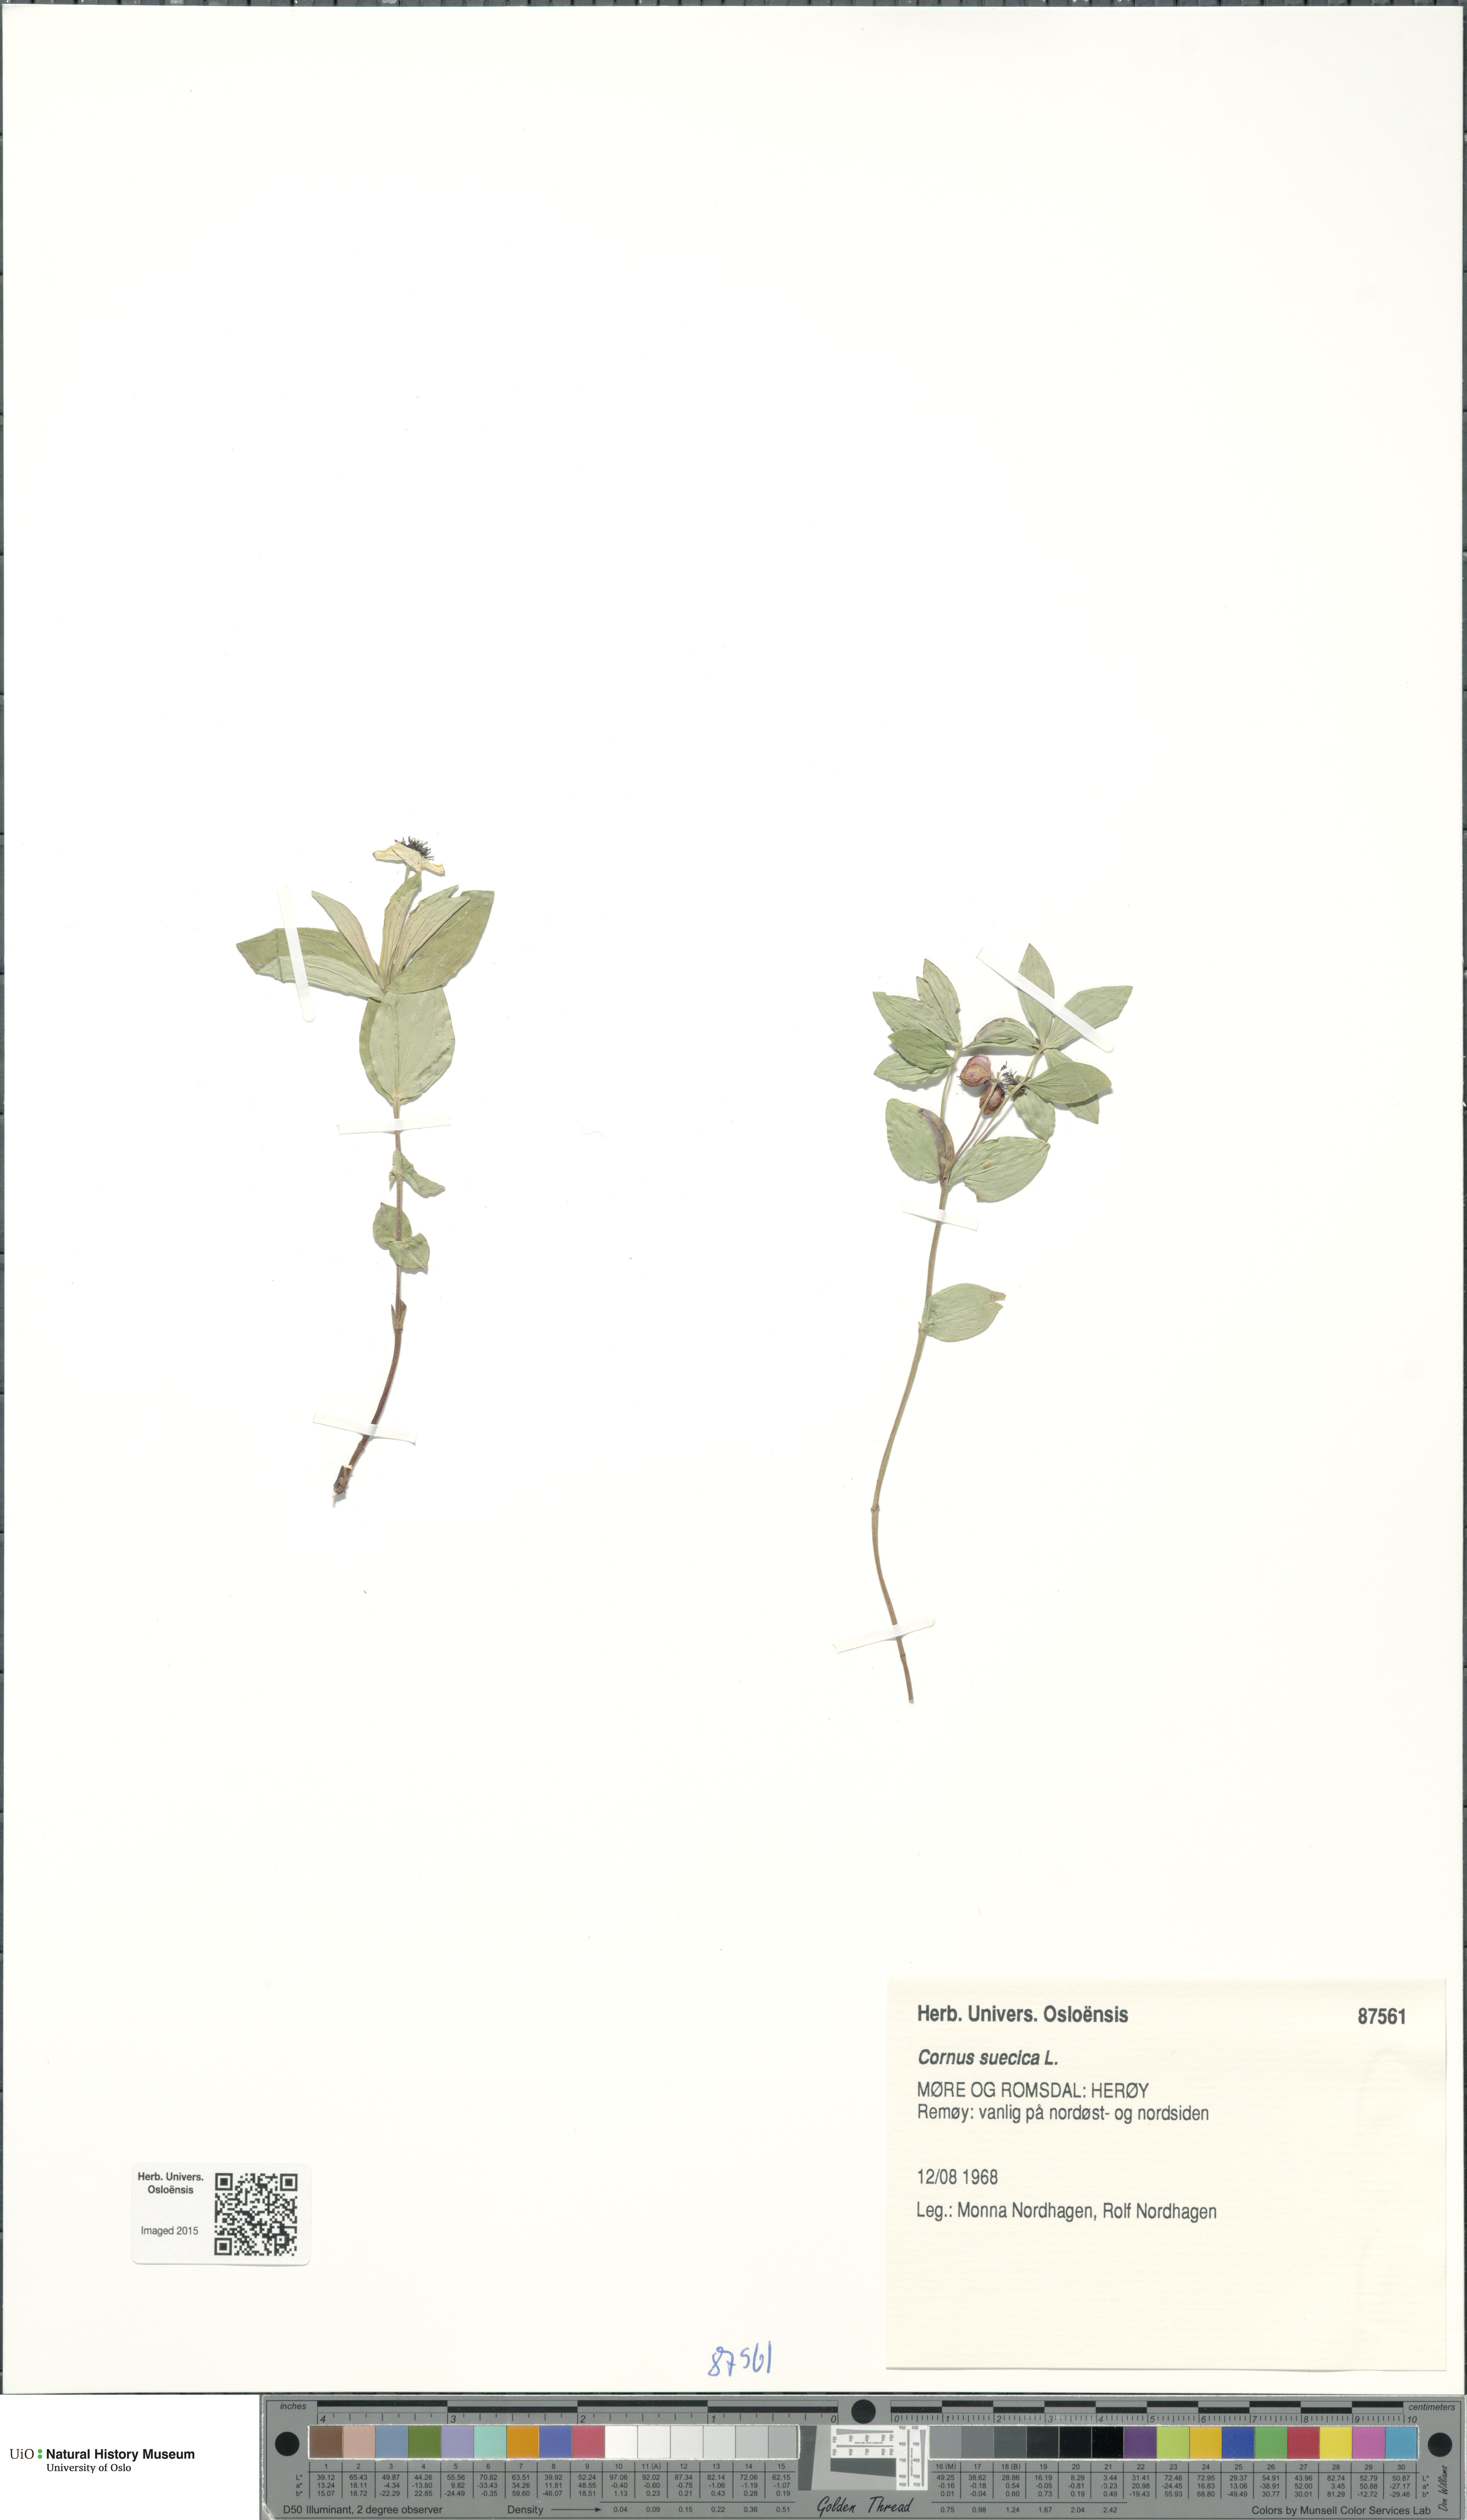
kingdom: Plantae
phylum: Tracheophyta
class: Magnoliopsida
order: Cornales
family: Cornaceae
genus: Cornus
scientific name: Cornus suecica
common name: Dwarf cornel
